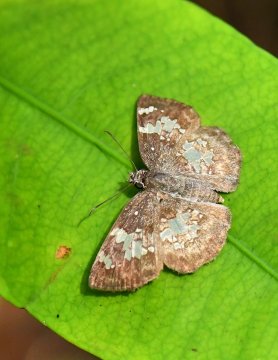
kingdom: Animalia
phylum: Arthropoda
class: Insecta
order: Lepidoptera
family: Hesperiidae
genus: Xenophanes
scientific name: Xenophanes tryxus
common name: Glassy-winged Skipper
